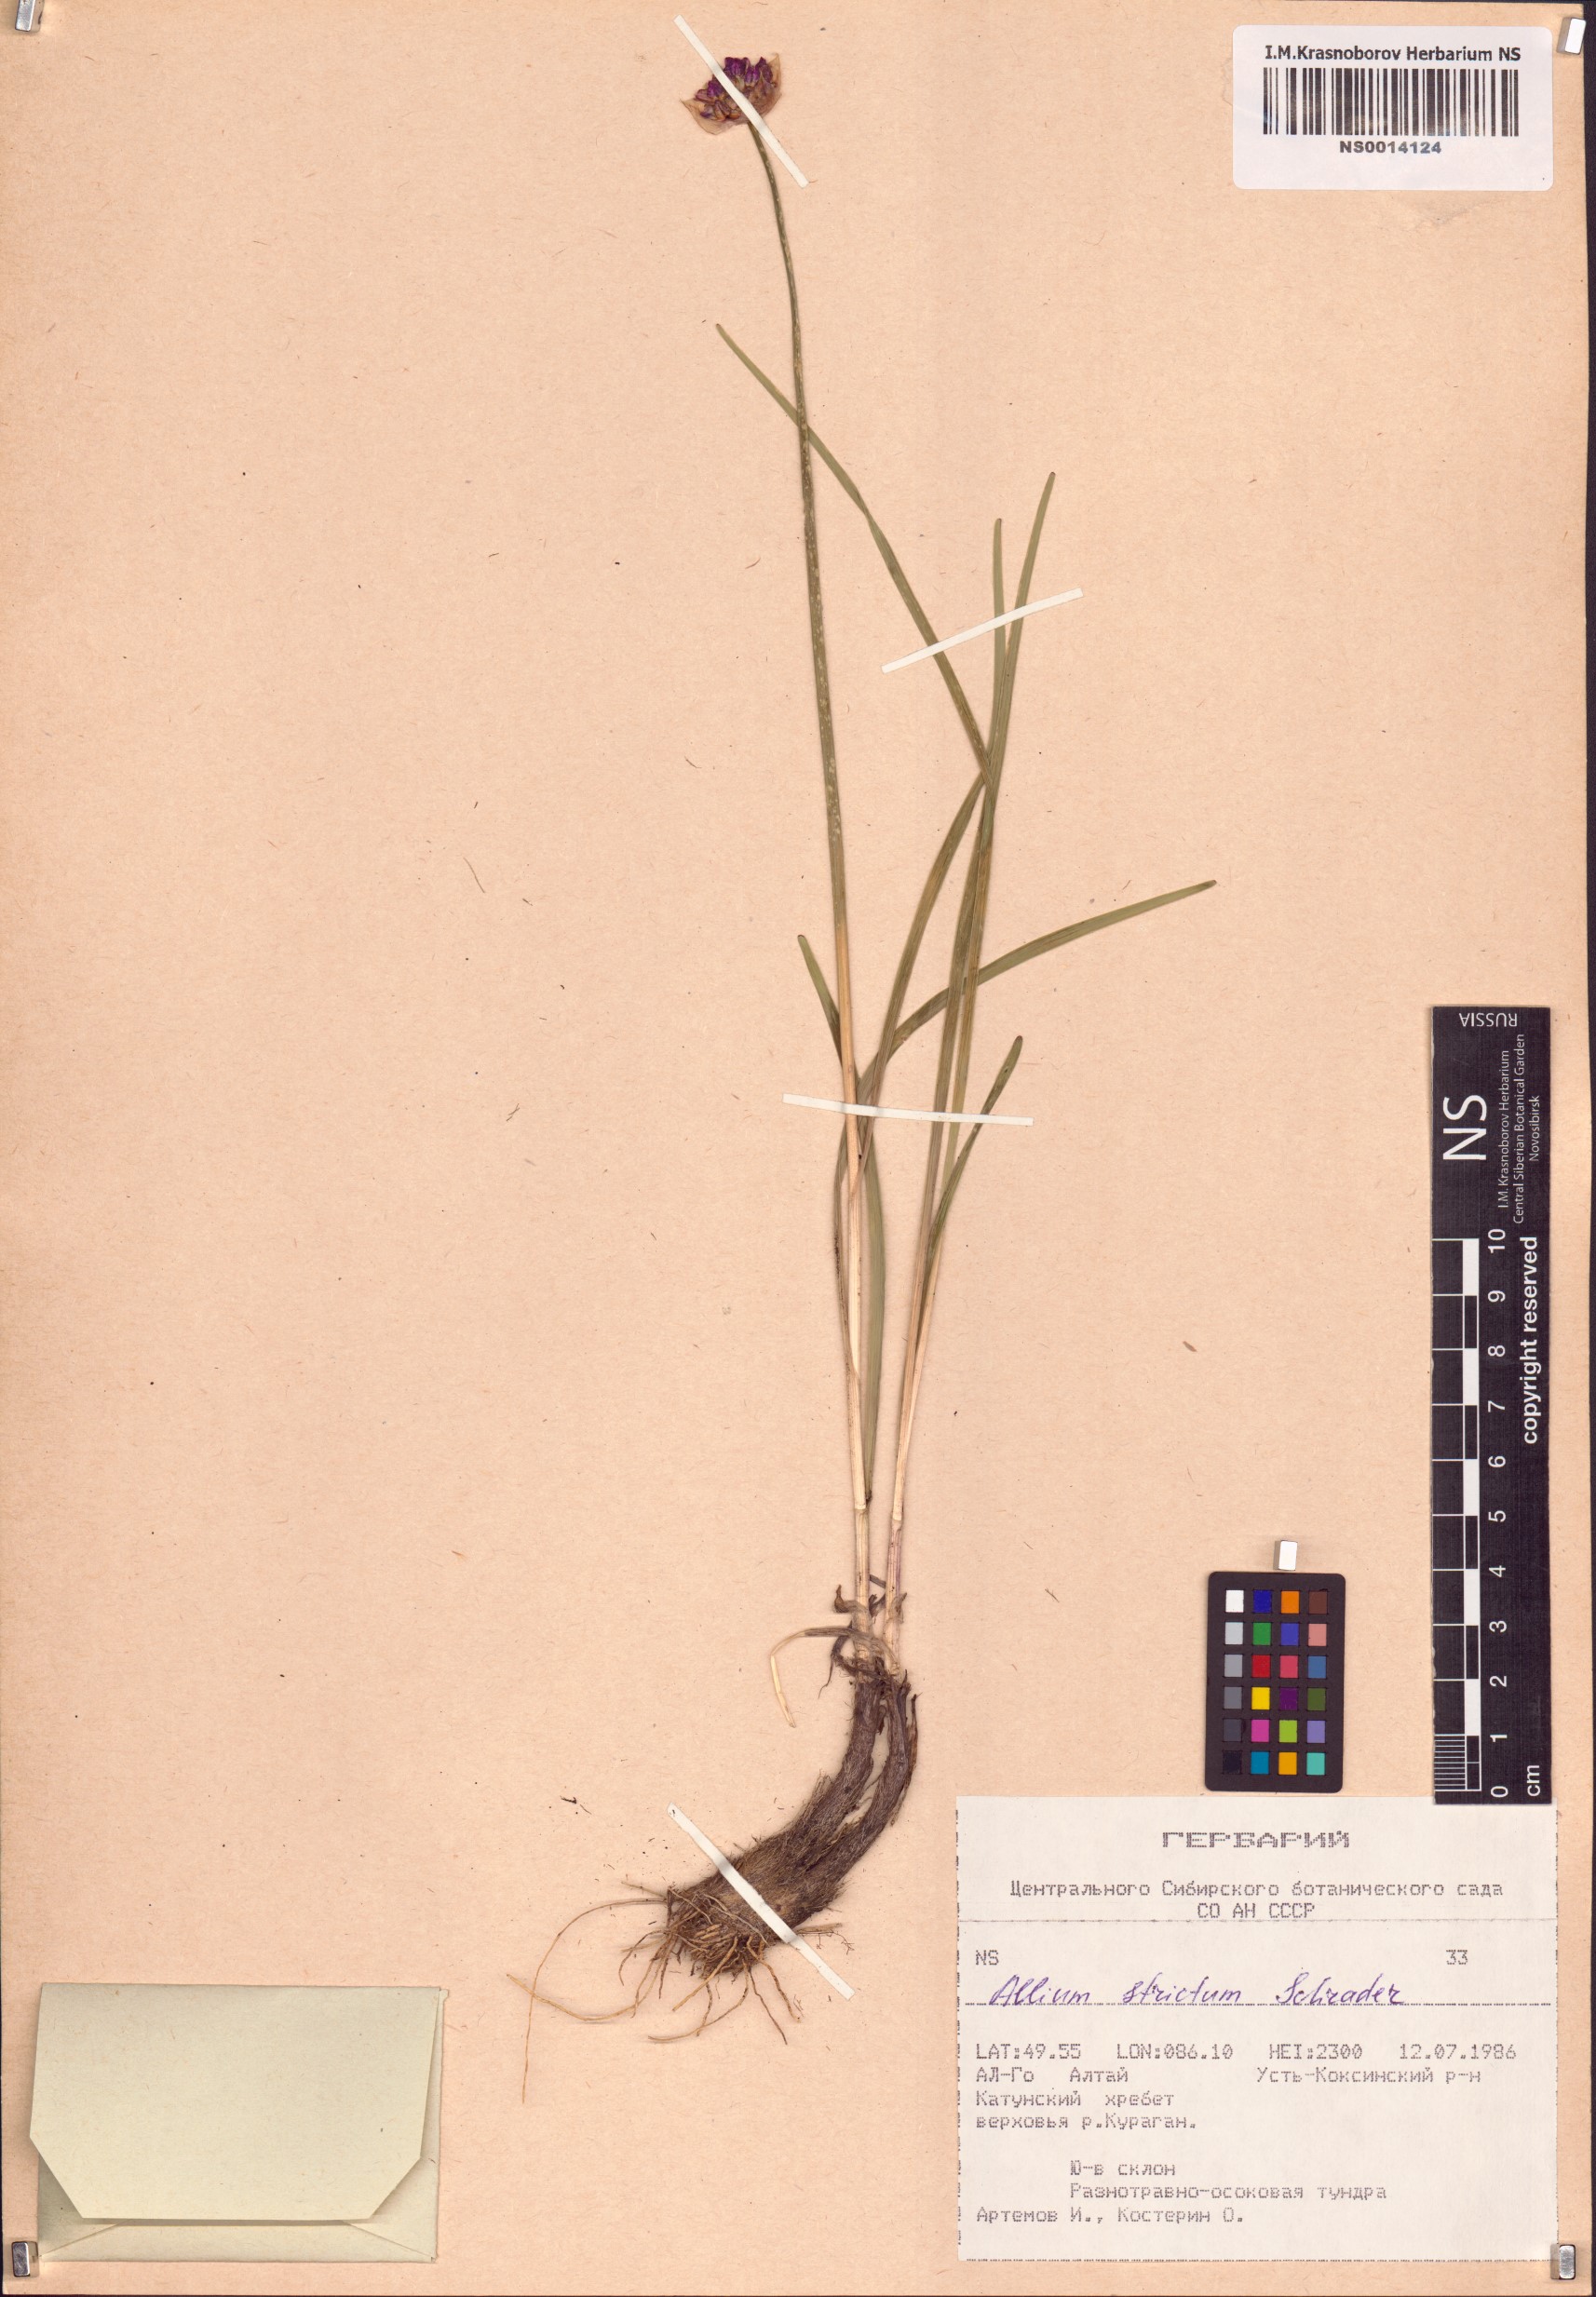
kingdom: Plantae
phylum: Tracheophyta
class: Liliopsida
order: Asparagales
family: Amaryllidaceae
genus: Allium
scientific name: Allium strictum
